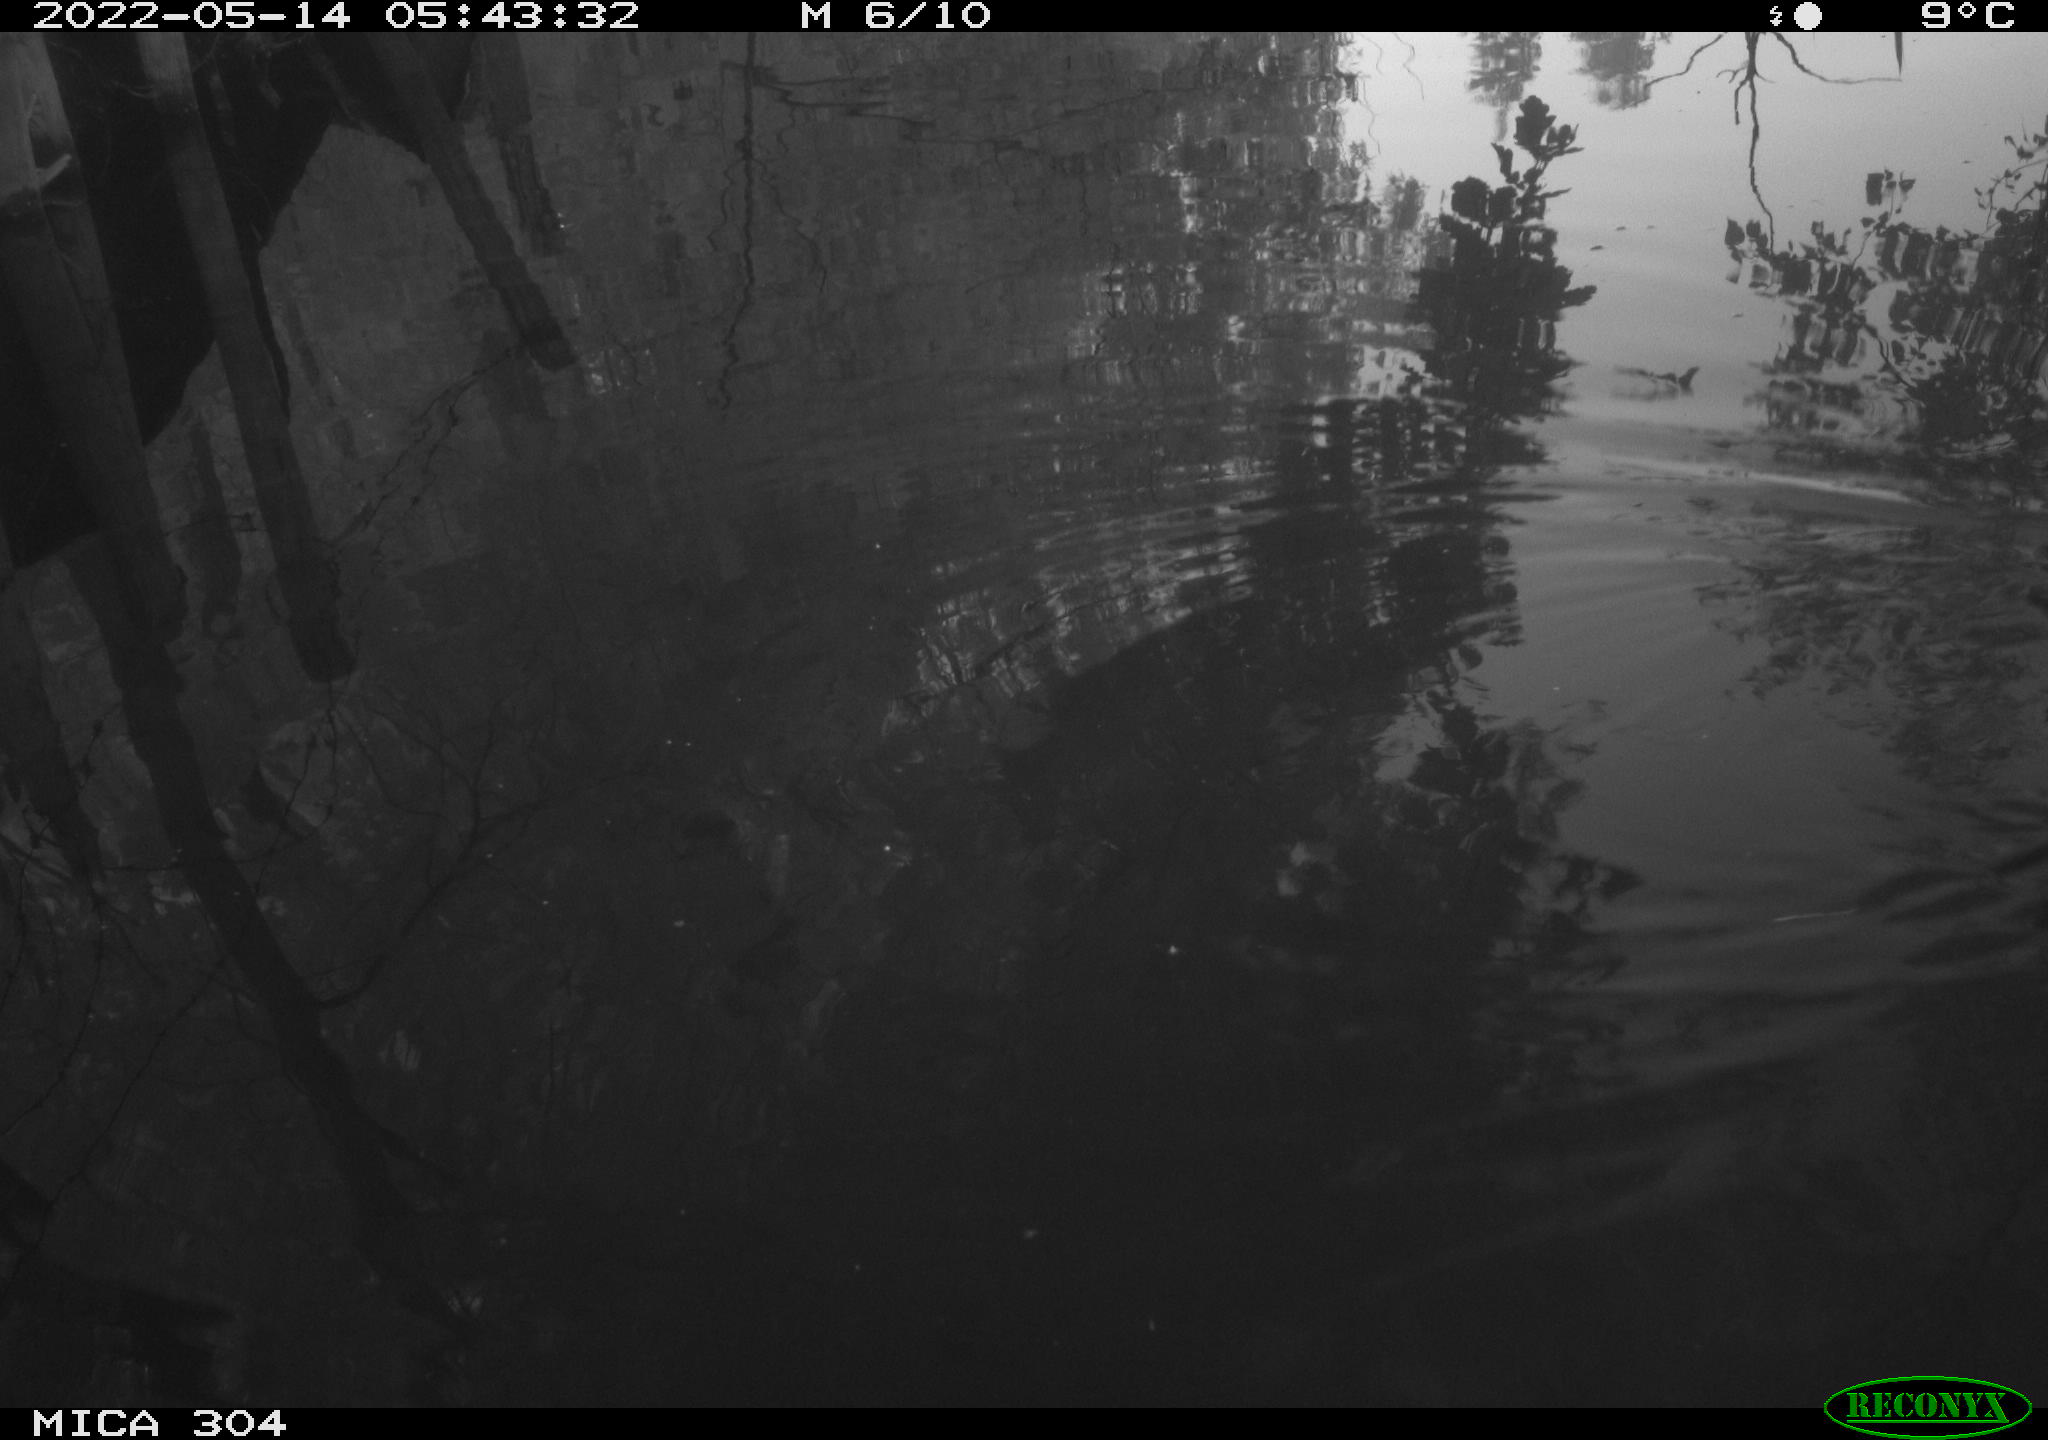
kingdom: Animalia
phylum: Chordata
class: Aves
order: Gruiformes
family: Rallidae
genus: Gallinula
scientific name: Gallinula chloropus
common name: Common moorhen
